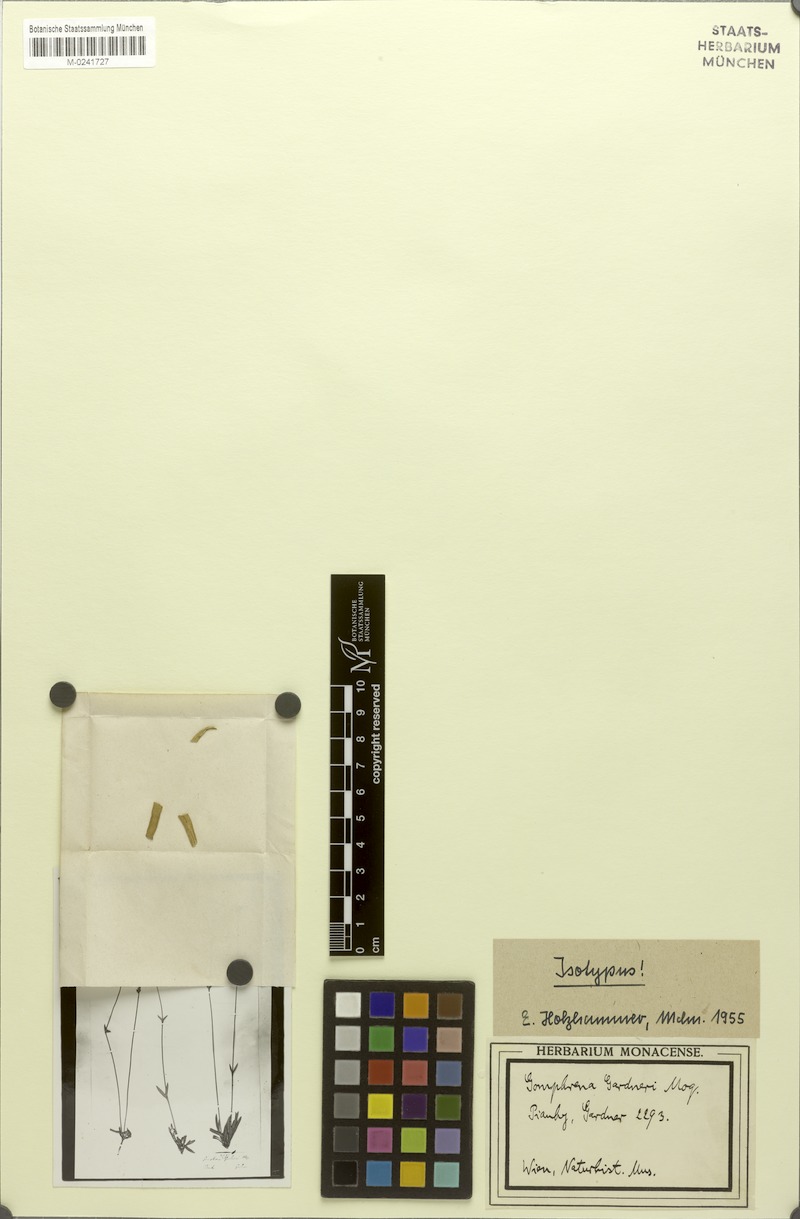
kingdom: Plantae
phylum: Tracheophyta
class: Magnoliopsida
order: Caryophyllales
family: Amaranthaceae
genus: Gomphrena
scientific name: Gomphrena gardneri
